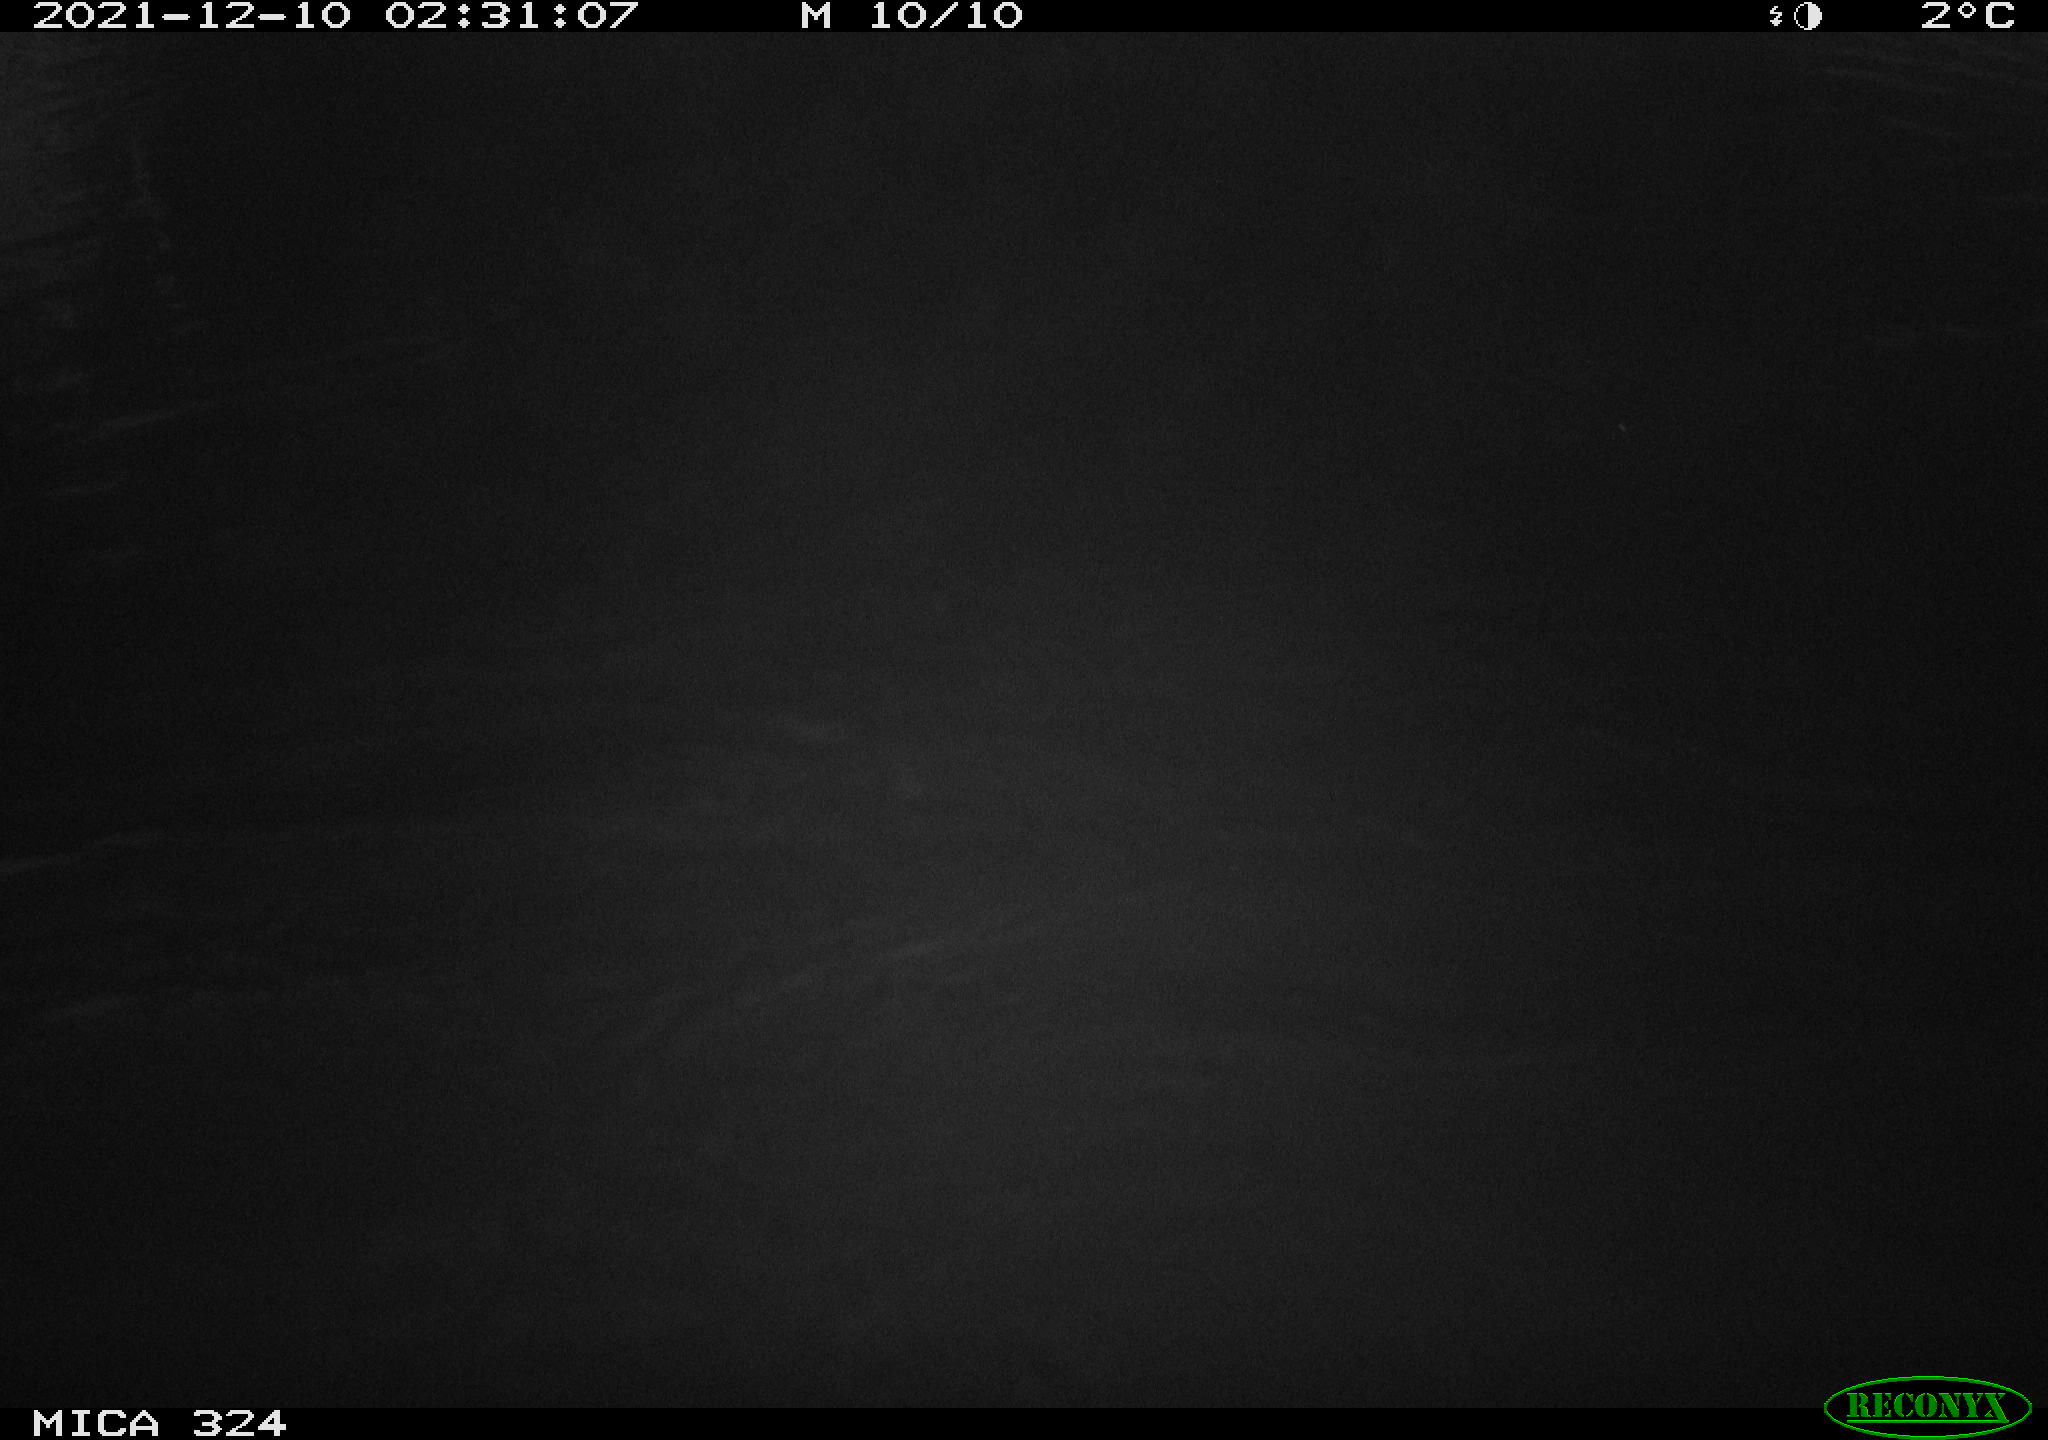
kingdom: Animalia
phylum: Chordata
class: Mammalia
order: Rodentia
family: Cricetidae
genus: Ondatra
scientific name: Ondatra zibethicus
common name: Muskrat
